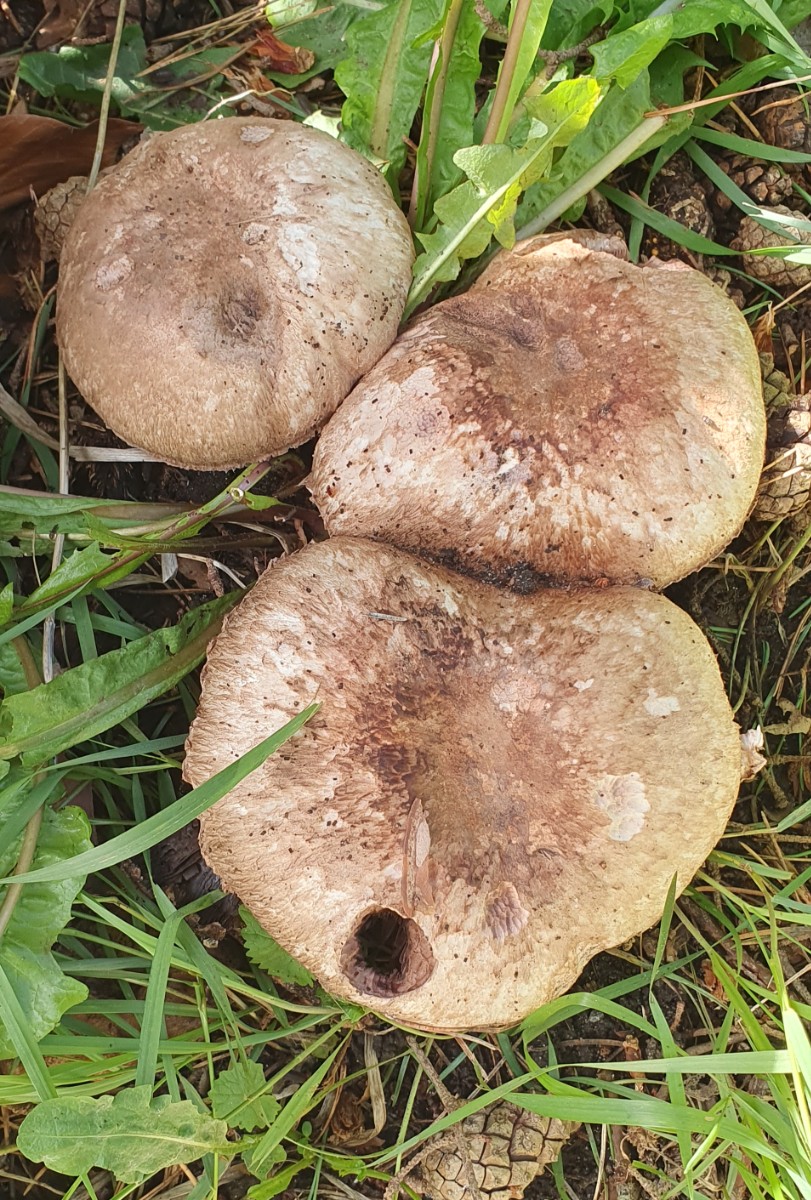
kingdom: Fungi
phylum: Basidiomycota
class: Agaricomycetes
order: Agaricales
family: Agaricaceae
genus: Agaricus
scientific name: Agaricus coniferarum
